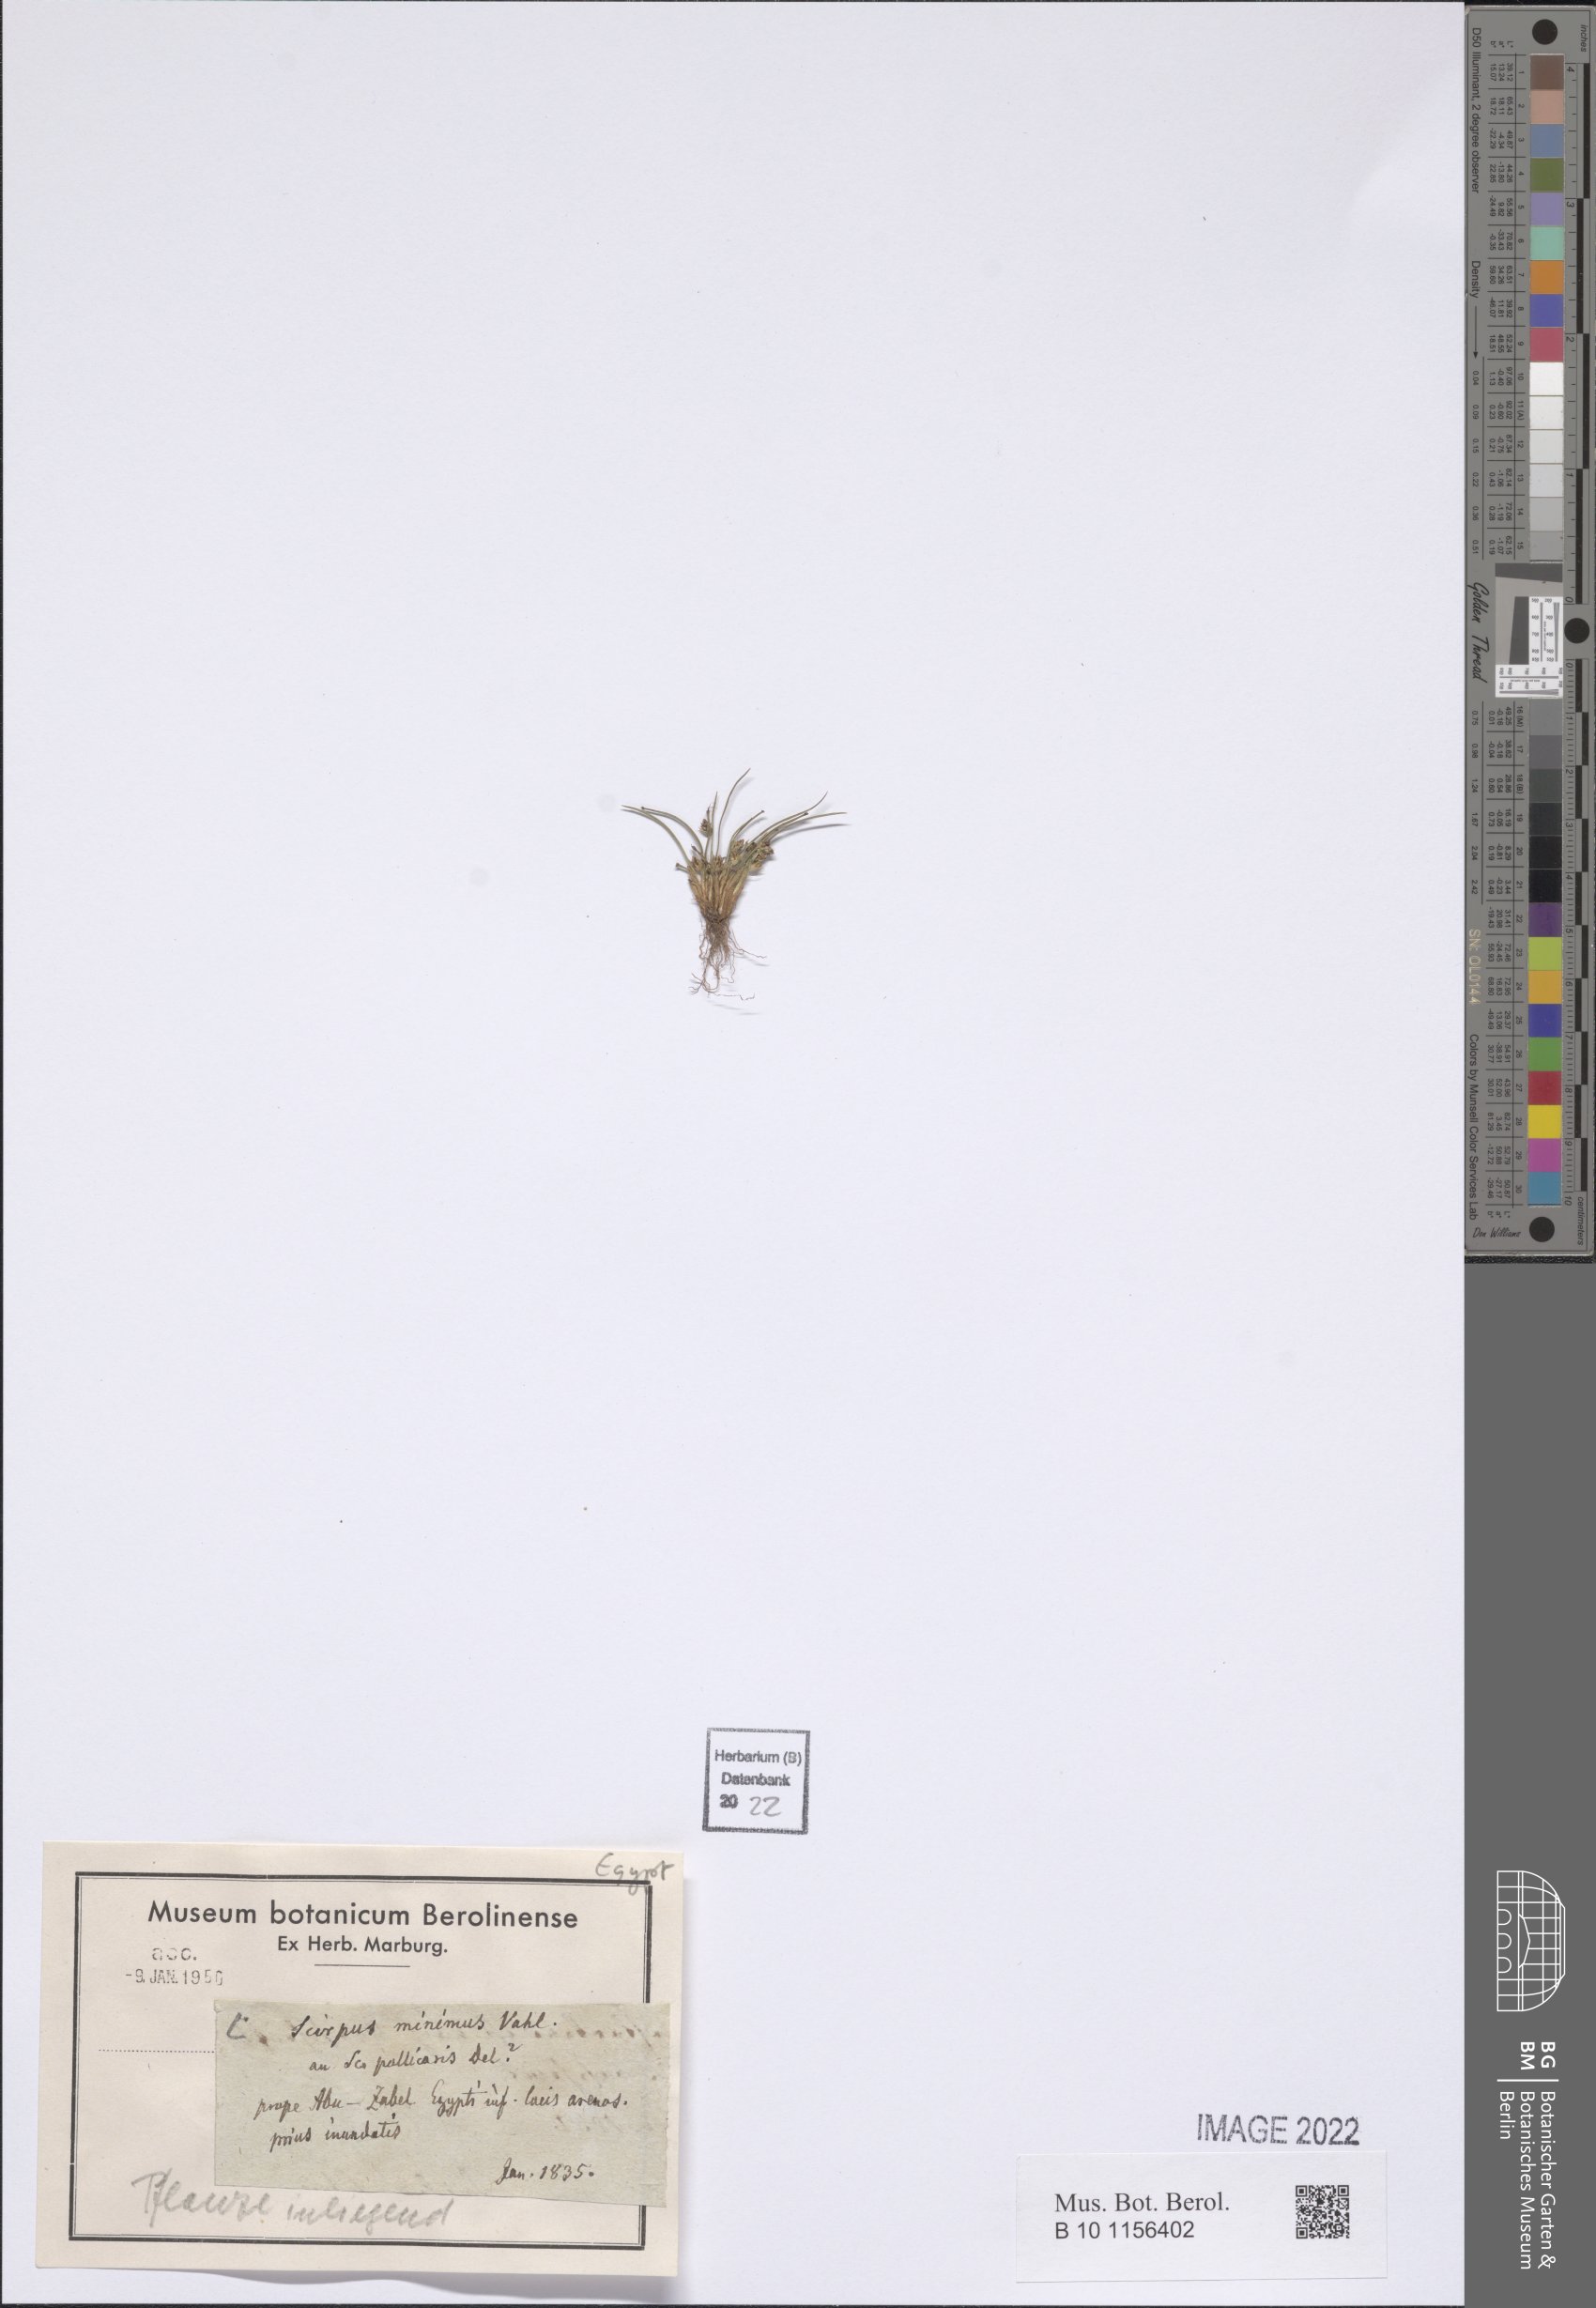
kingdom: Plantae
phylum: Tracheophyta
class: Liliopsida
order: Poales
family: Cyperaceae
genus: Bulbostylis
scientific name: Bulbostylis barbata
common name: Watergrass
